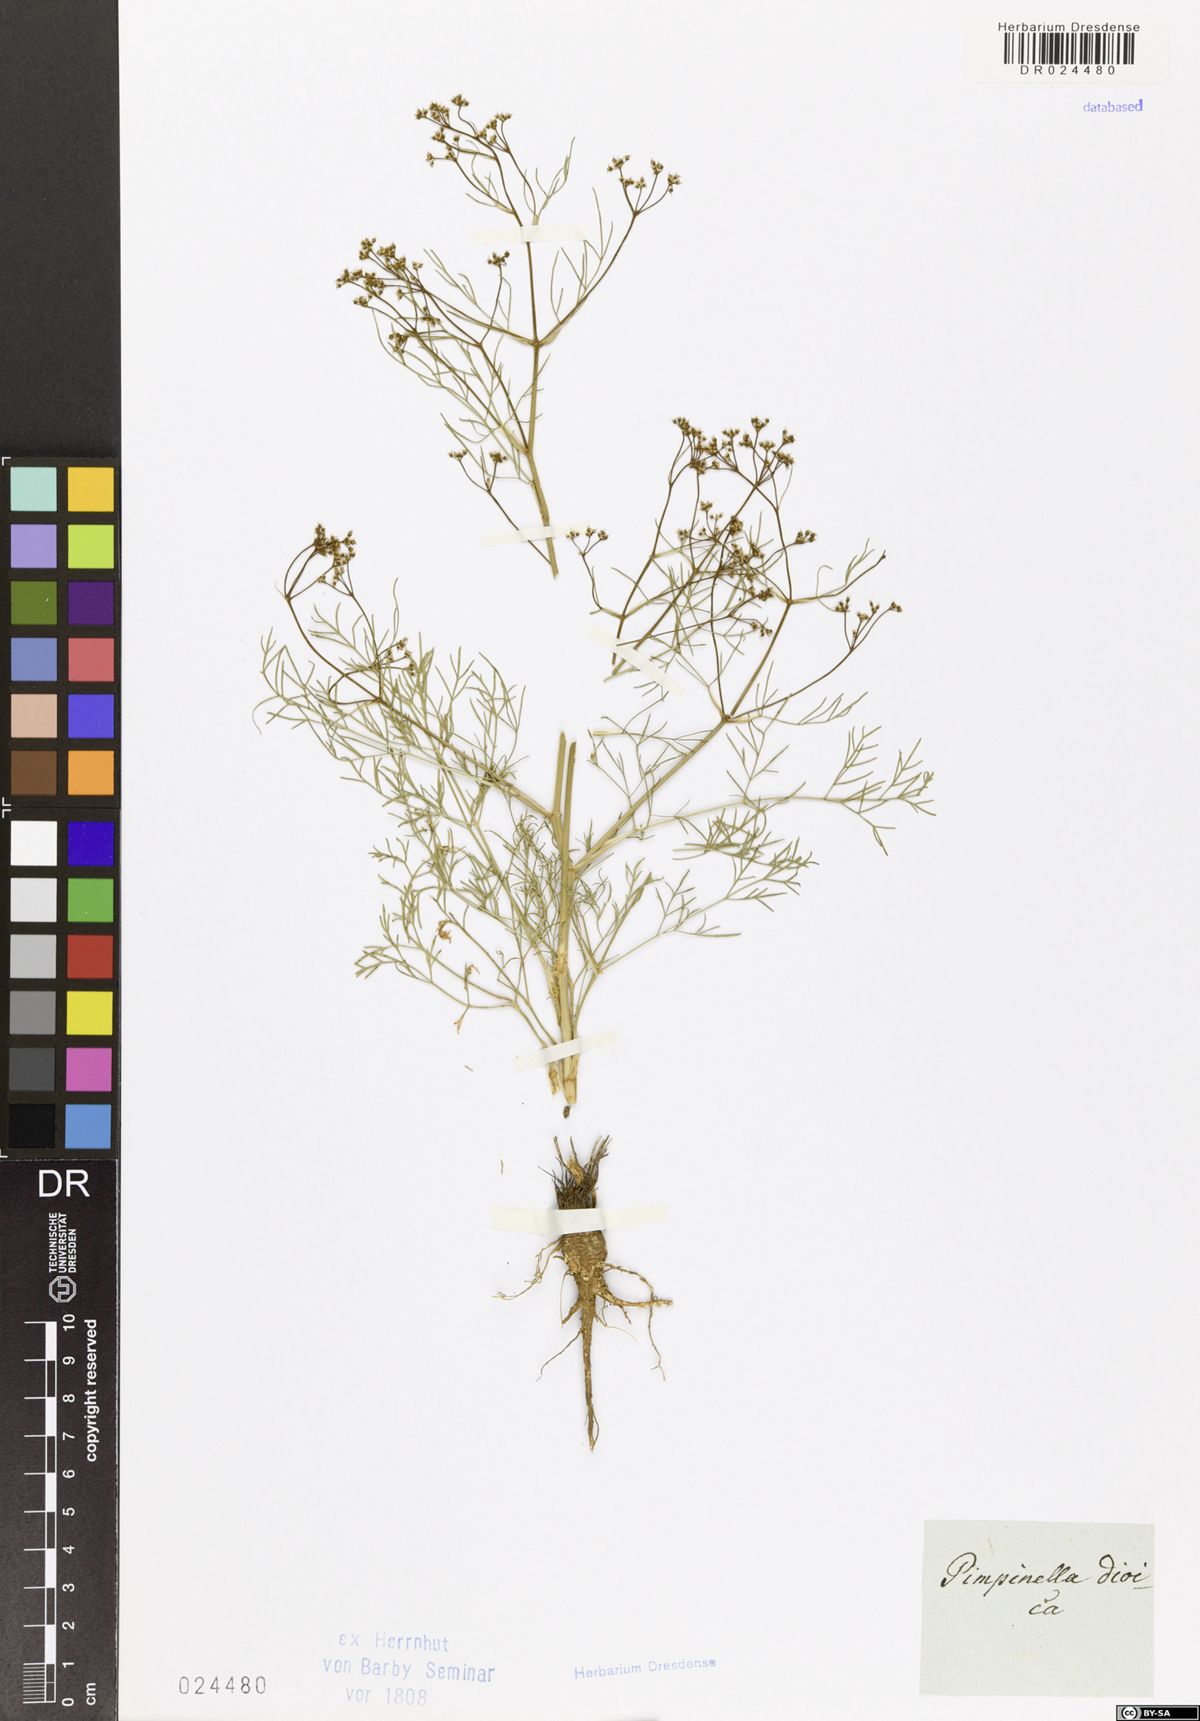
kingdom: Plantae
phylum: Tracheophyta
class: Magnoliopsida
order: Apiales
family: Apiaceae
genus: Trinia
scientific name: Trinia multicaulis
